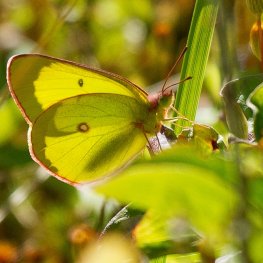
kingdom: Animalia
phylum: Arthropoda
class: Insecta
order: Lepidoptera
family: Pieridae
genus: Colias
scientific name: Colias interior
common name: Pink-edged Sulphur
